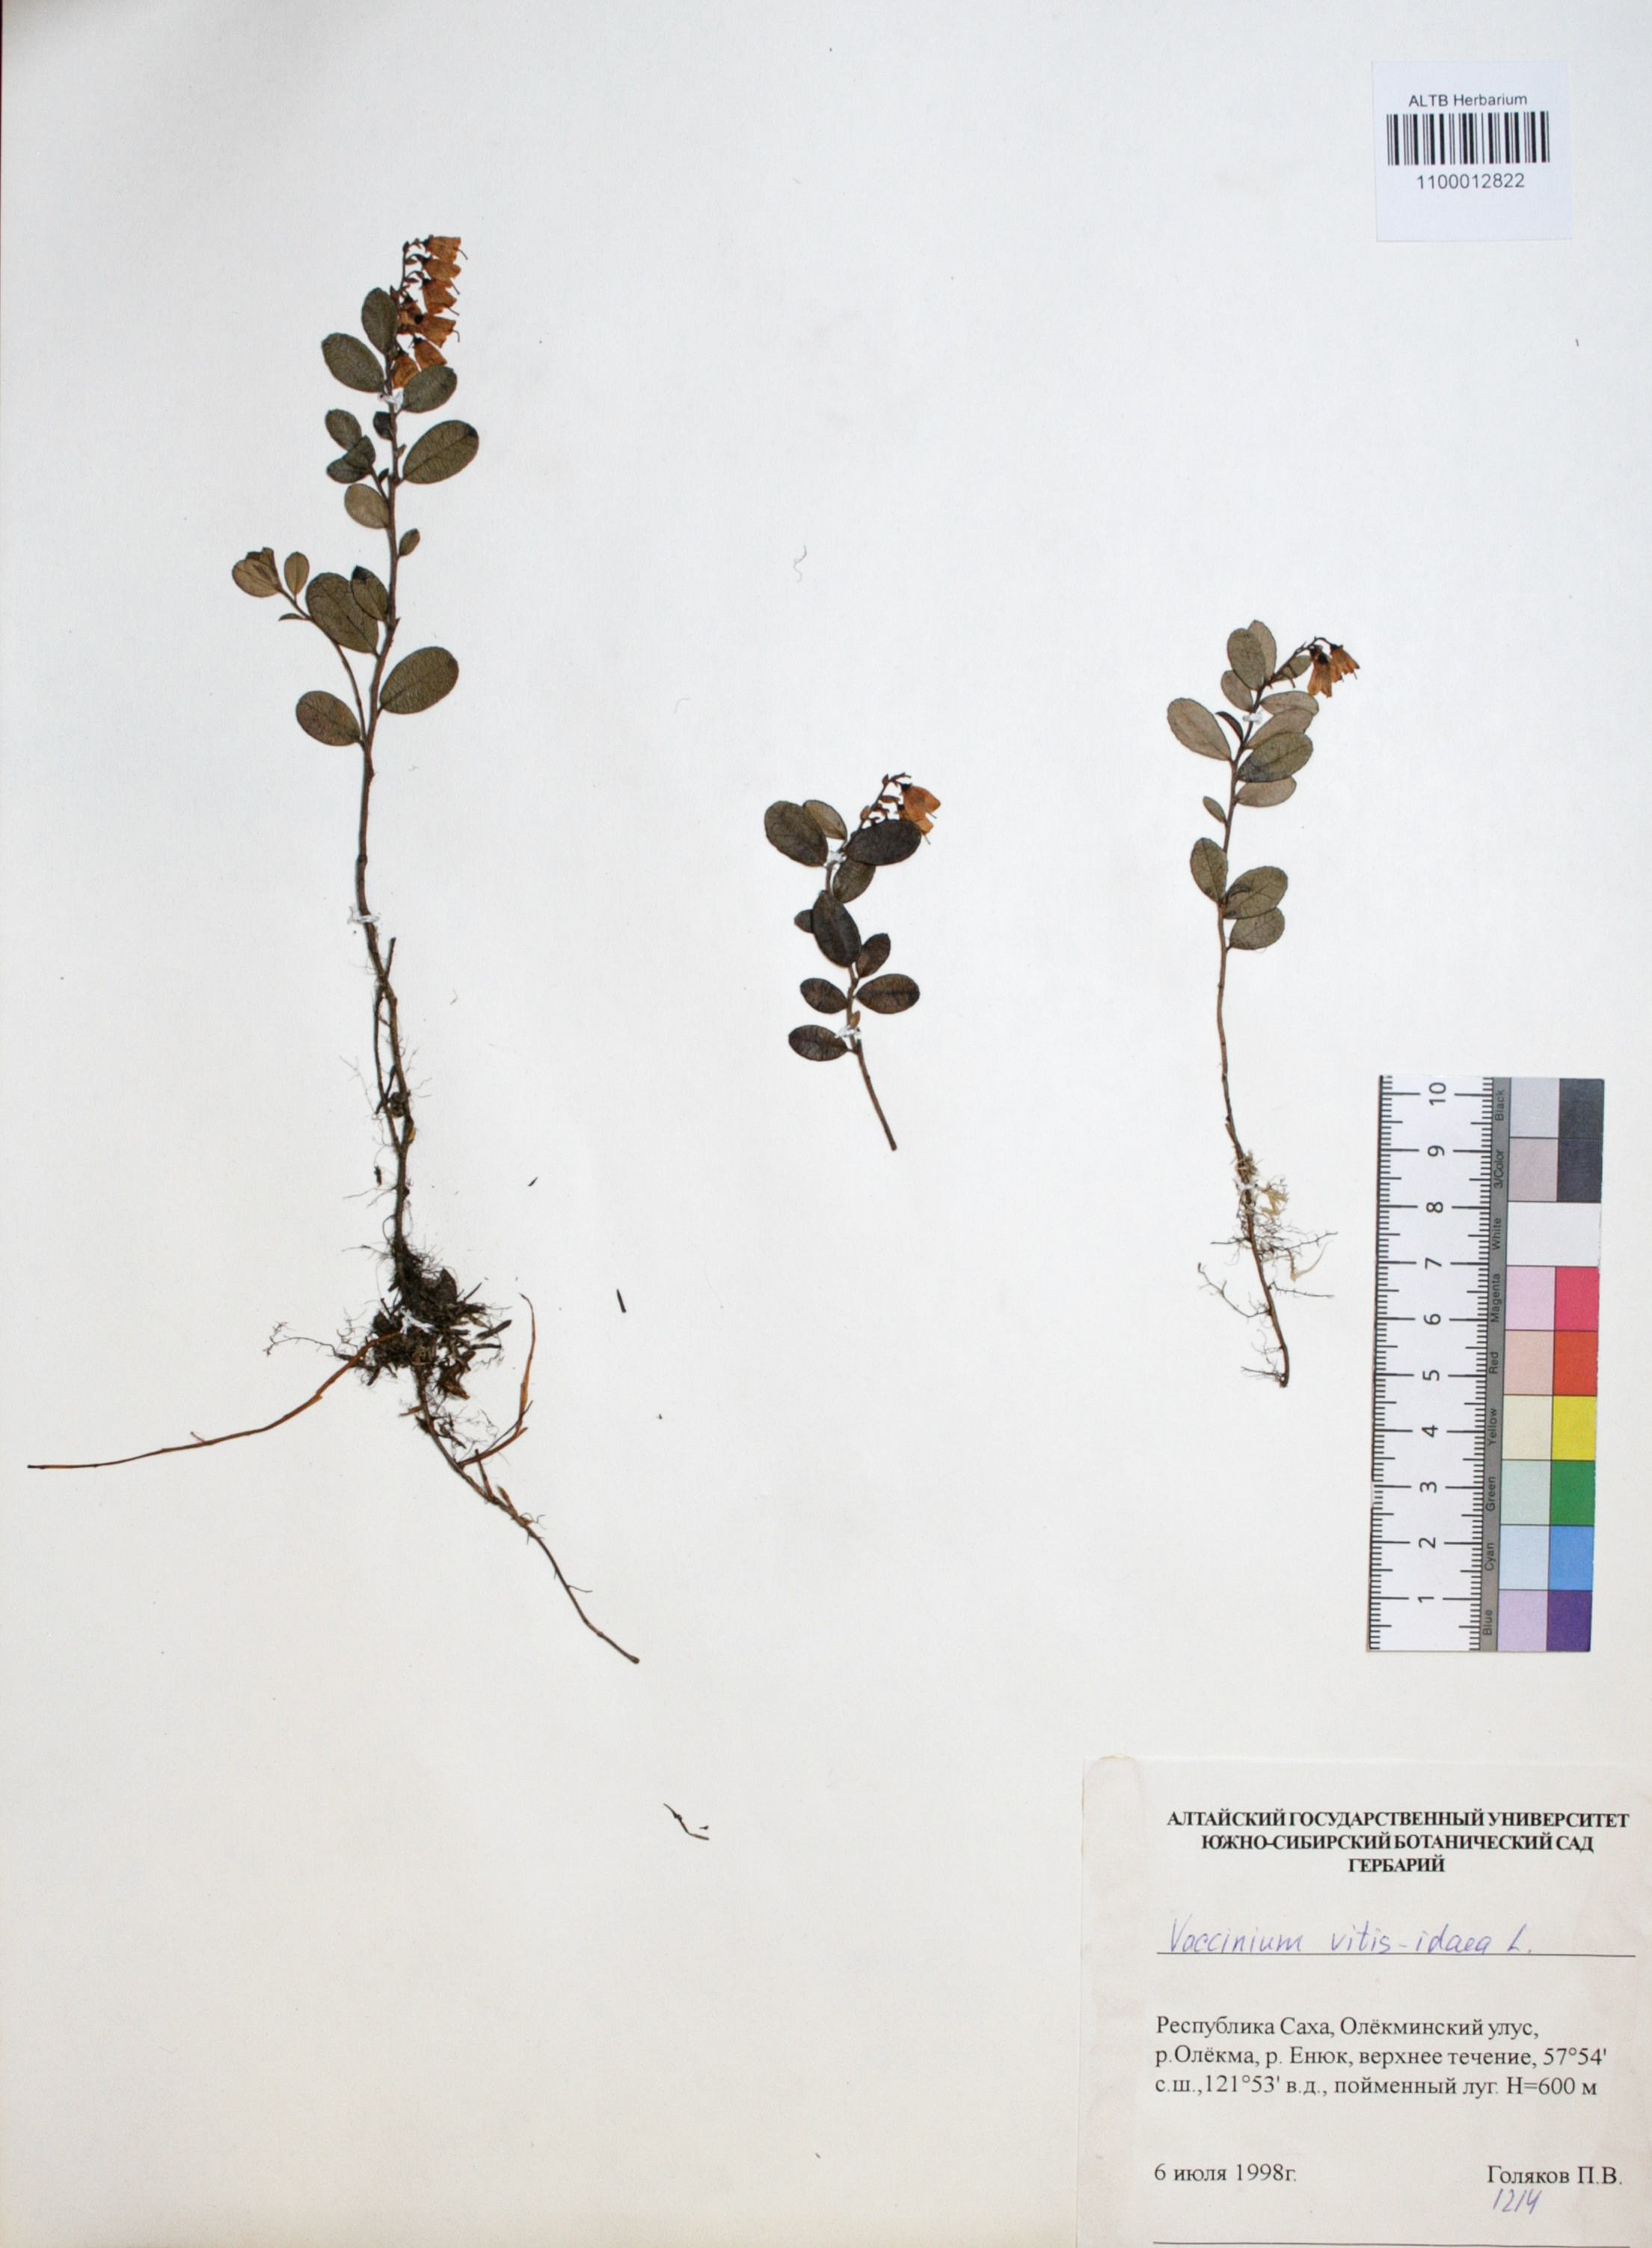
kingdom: Plantae
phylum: Tracheophyta
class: Magnoliopsida
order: Ericales
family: Ericaceae
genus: Vaccinium
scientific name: Vaccinium vitis-idaea
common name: Cowberry
